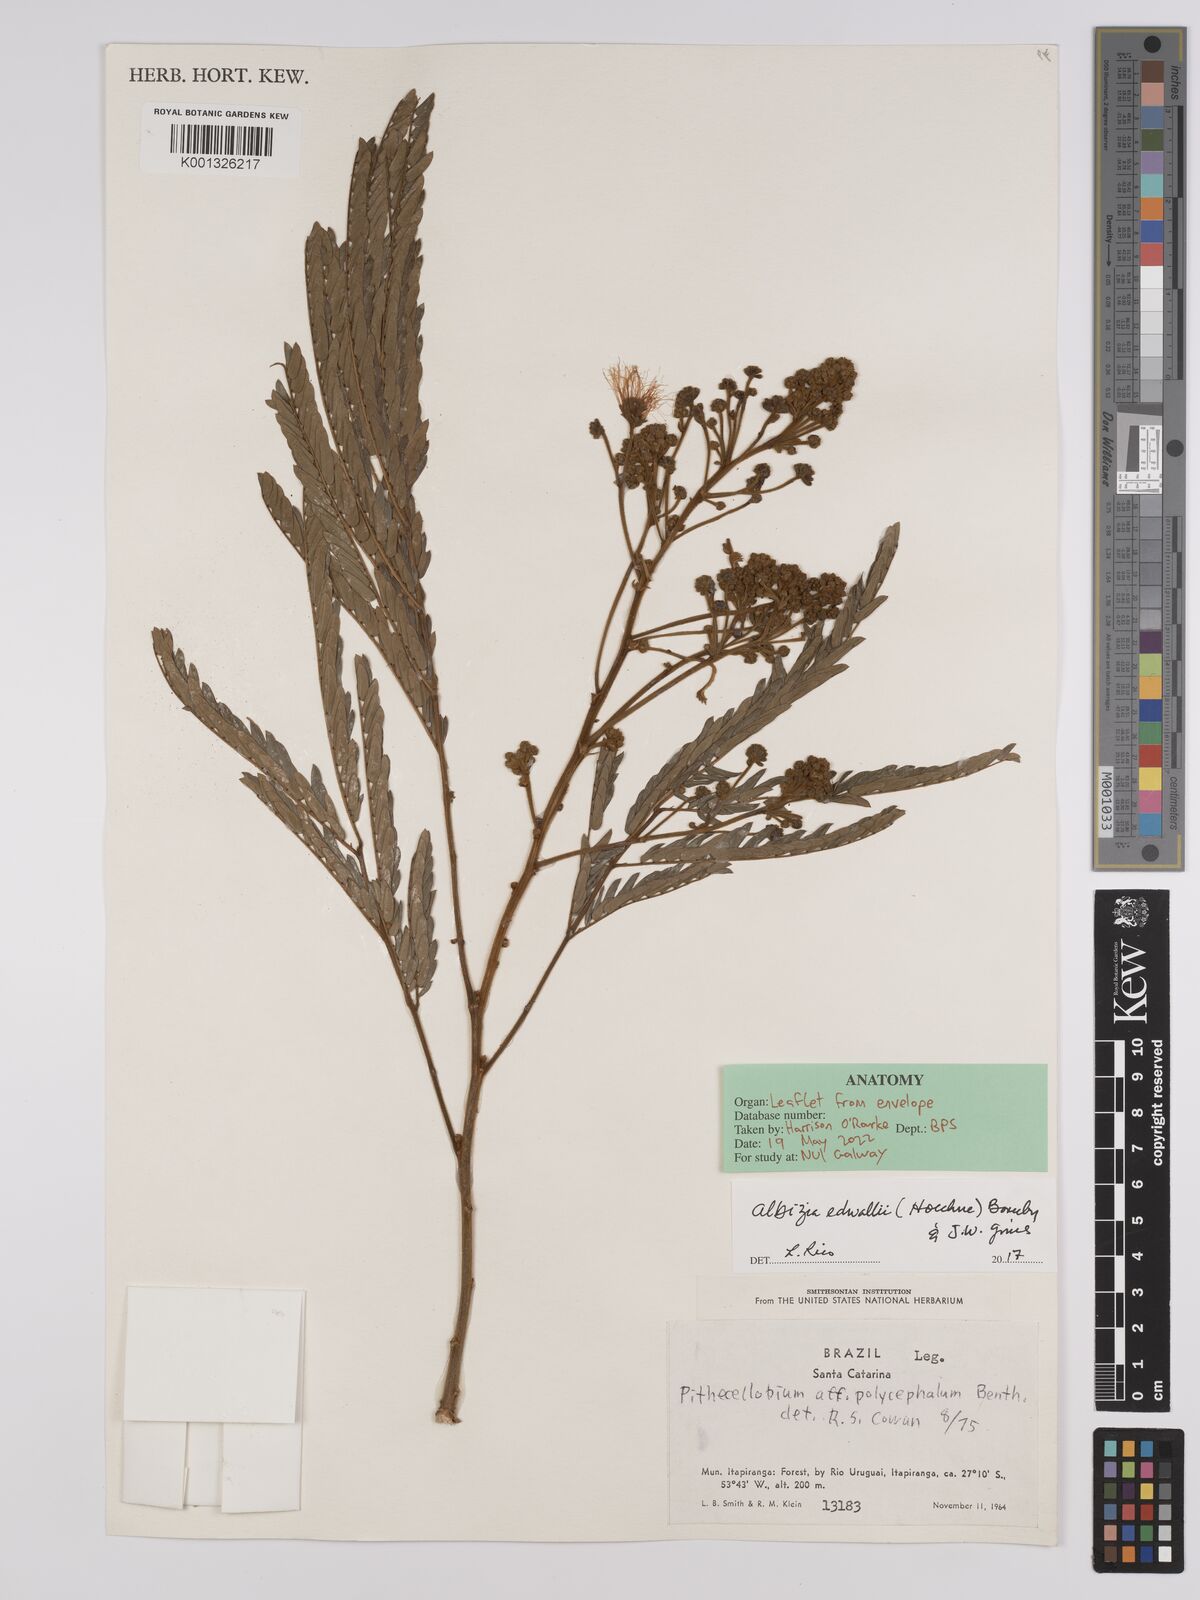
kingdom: Plantae
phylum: Tracheophyta
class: Magnoliopsida
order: Fabales
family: Fabaceae
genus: Albizia
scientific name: Albizia edwallii
